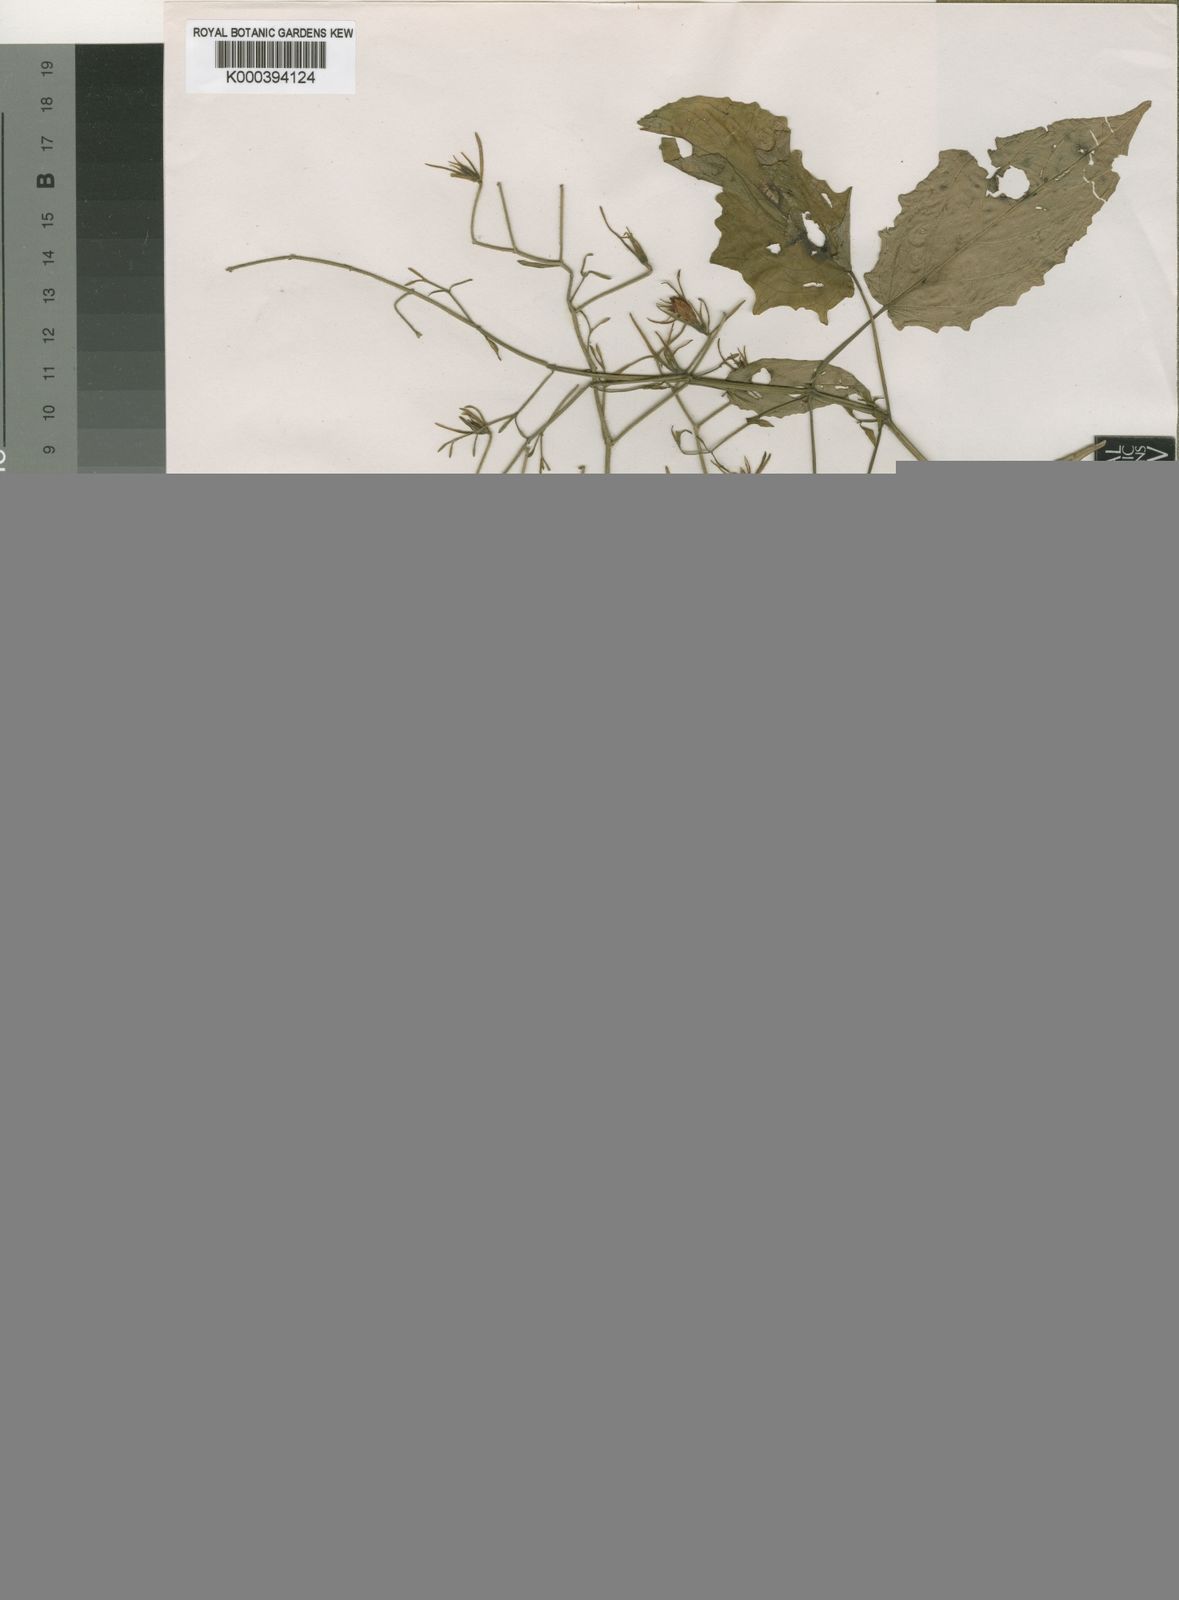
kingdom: Plantae
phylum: Tracheophyta
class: Magnoliopsida
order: Lamiales
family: Acanthaceae
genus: Mimulopsis
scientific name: Mimulopsis macrantha
